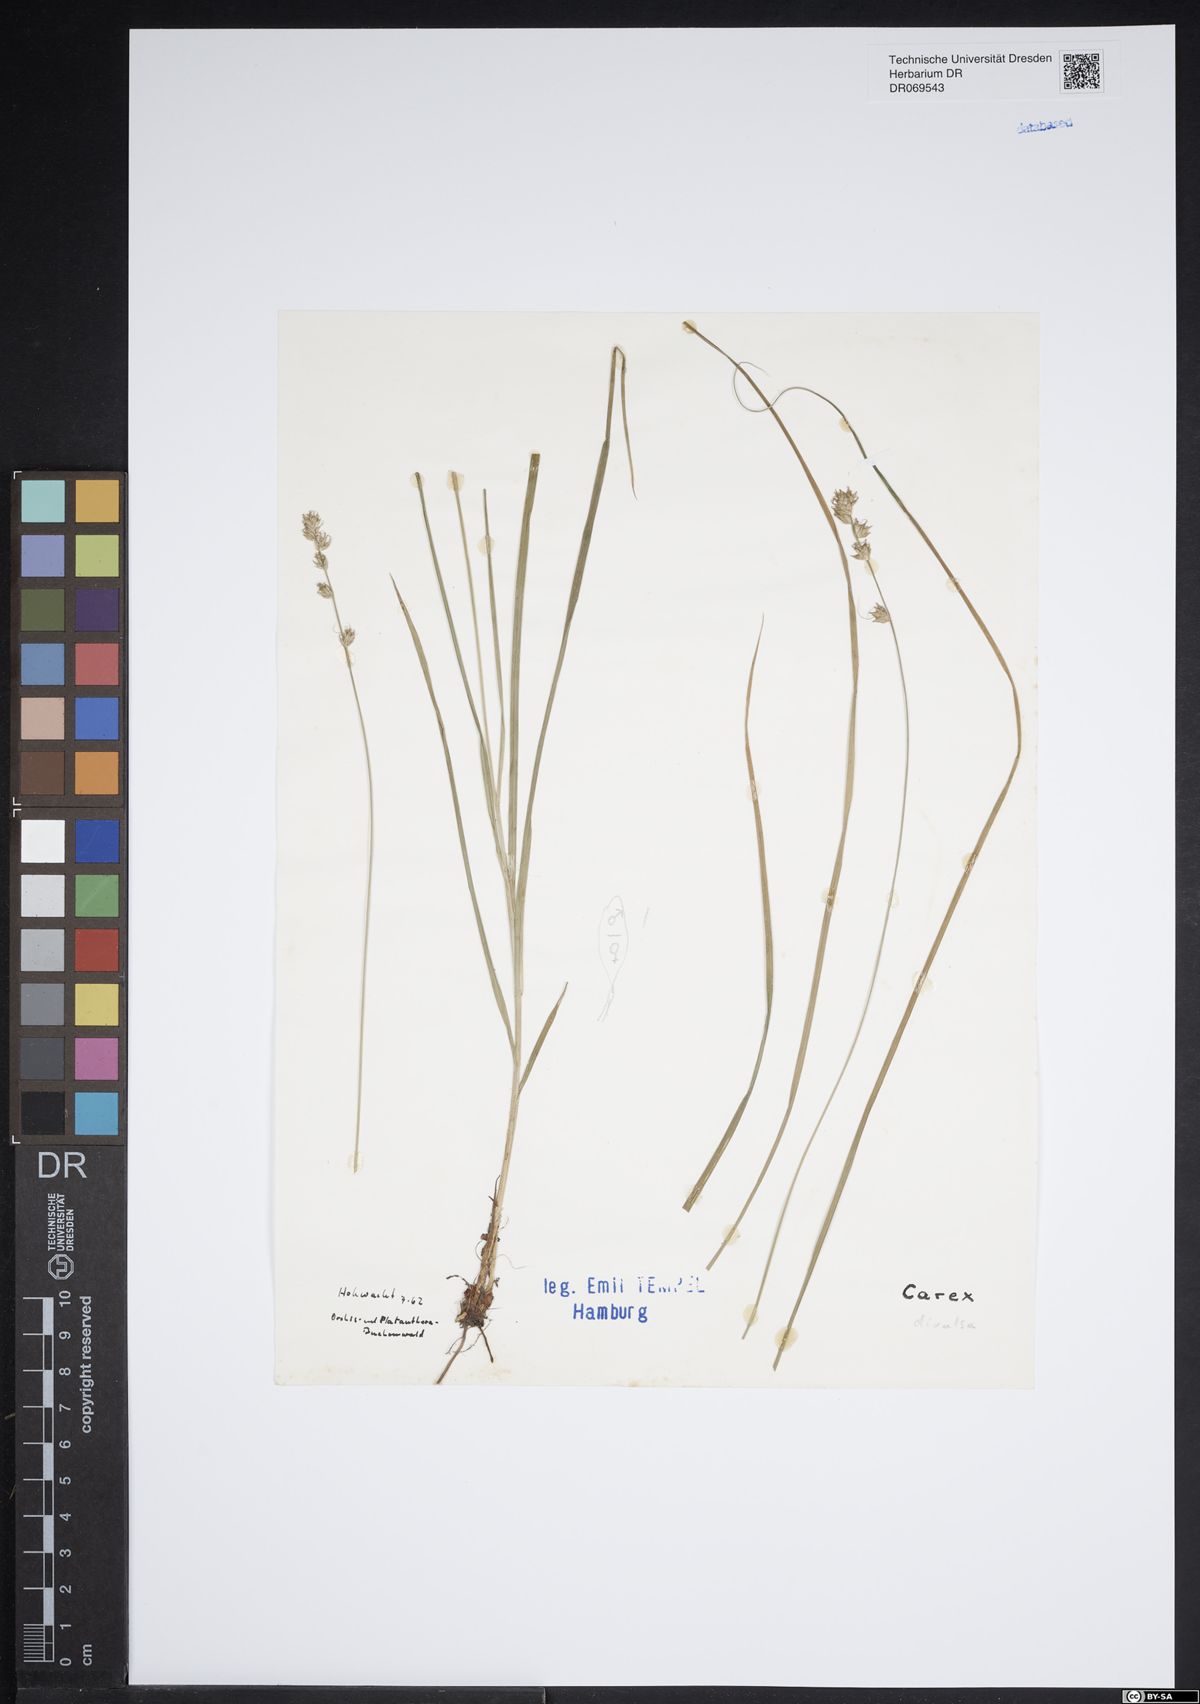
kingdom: Plantae
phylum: Tracheophyta
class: Liliopsida
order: Poales
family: Cyperaceae
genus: Carex
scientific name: Carex divulsa
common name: Grassland sedge
